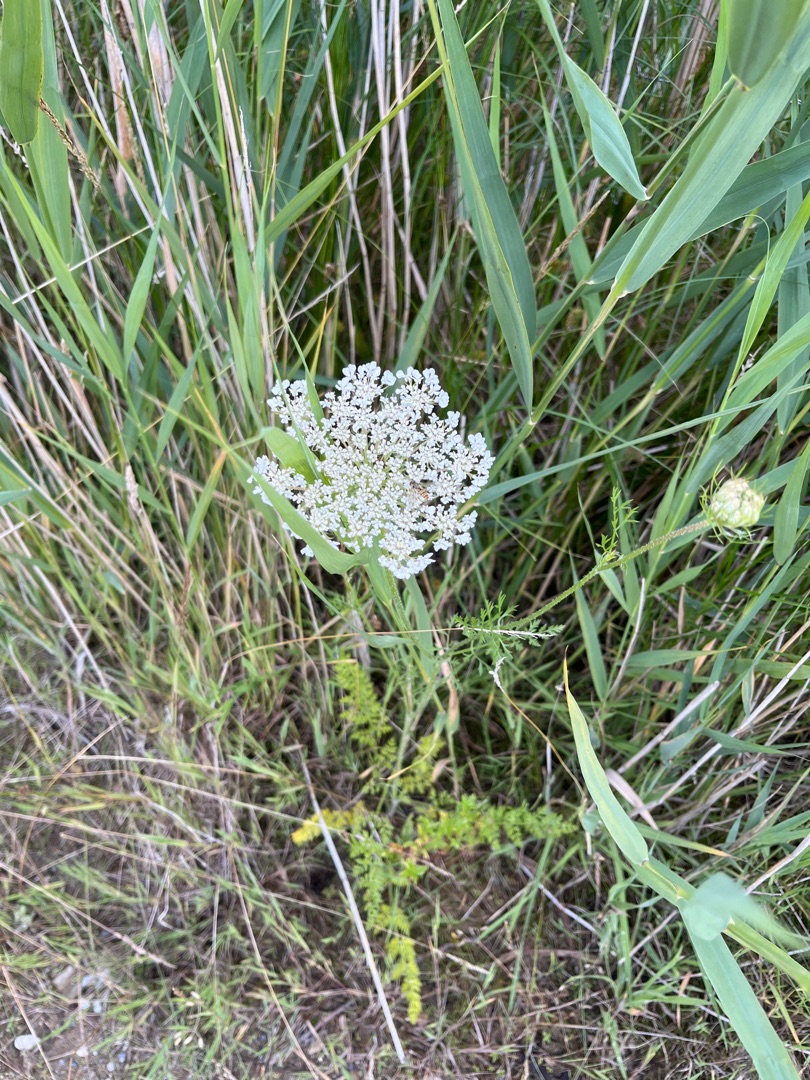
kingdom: Plantae
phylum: Tracheophyta
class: Magnoliopsida
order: Apiales
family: Apiaceae
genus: Daucus
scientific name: Daucus carota
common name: Gulerod
